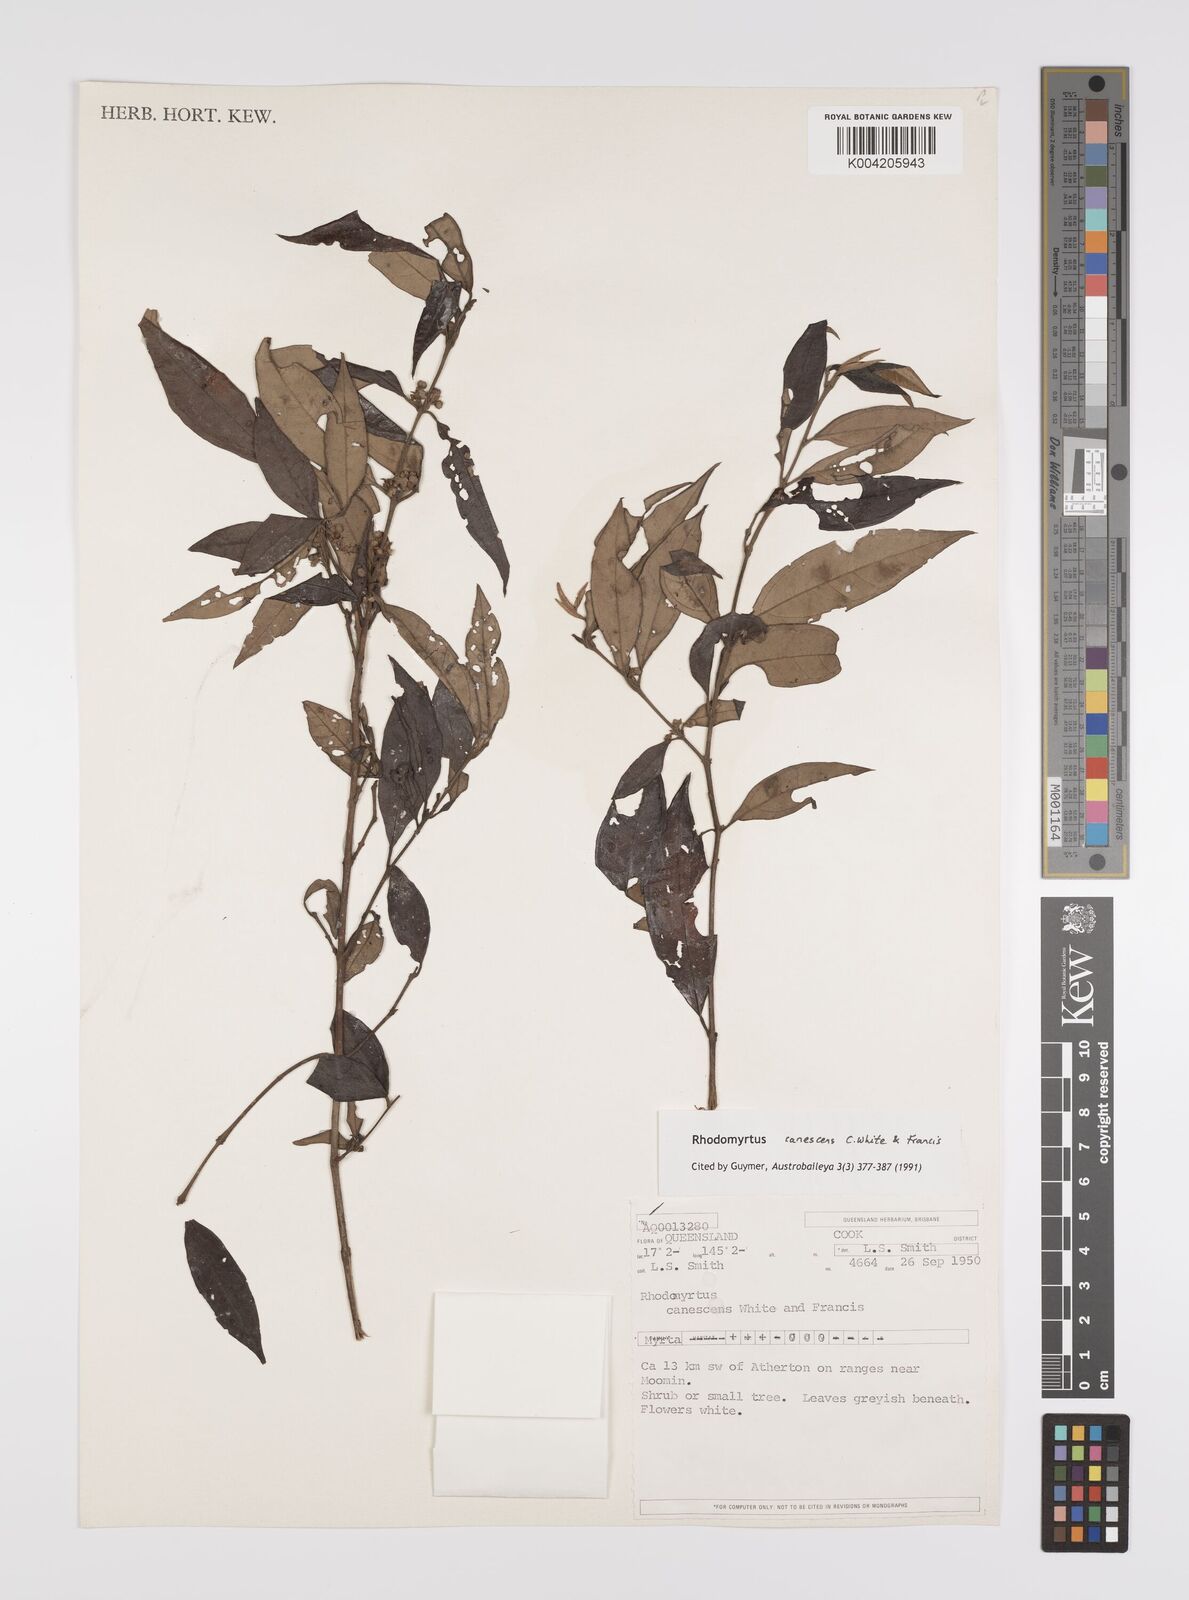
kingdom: Plantae
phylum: Tracheophyta
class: Magnoliopsida
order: Myrtales
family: Myrtaceae
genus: Rhodomyrtus
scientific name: Rhodomyrtus trineura
